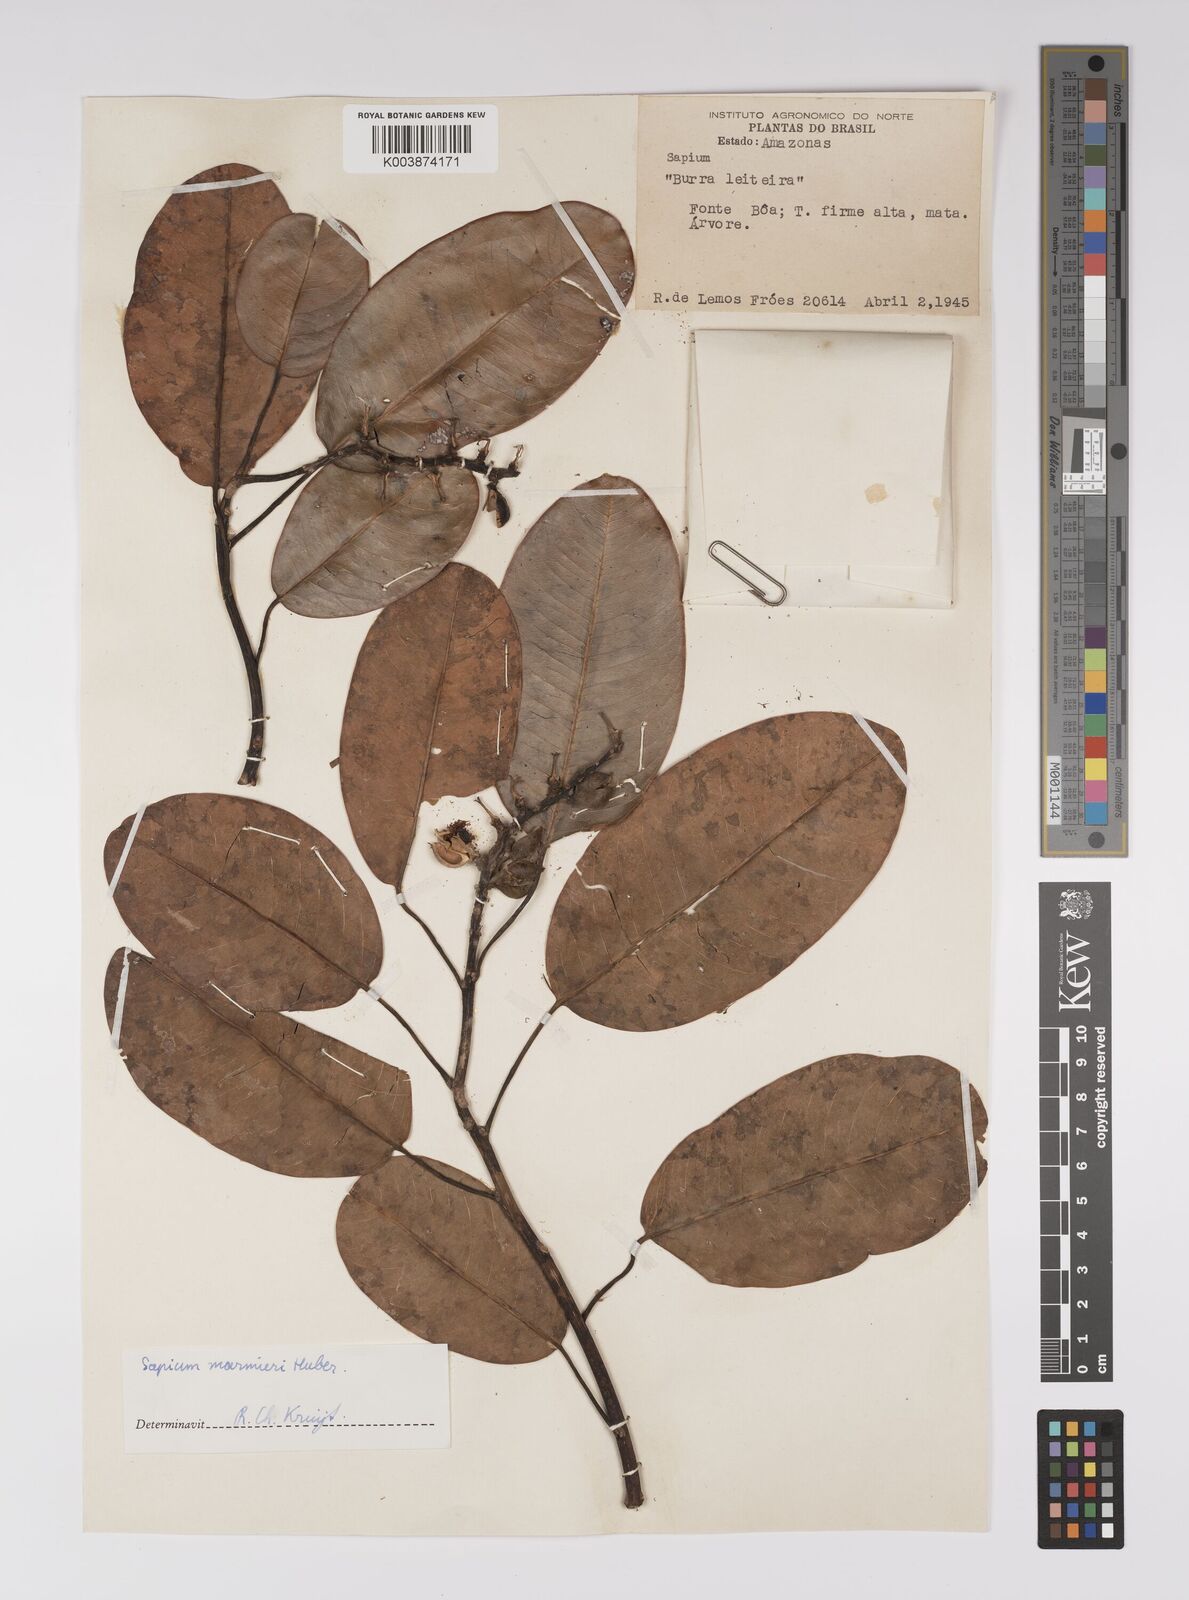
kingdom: Plantae
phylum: Tracheophyta
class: Magnoliopsida
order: Malpighiales
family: Euphorbiaceae
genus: Sapium
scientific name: Sapium marmieri
